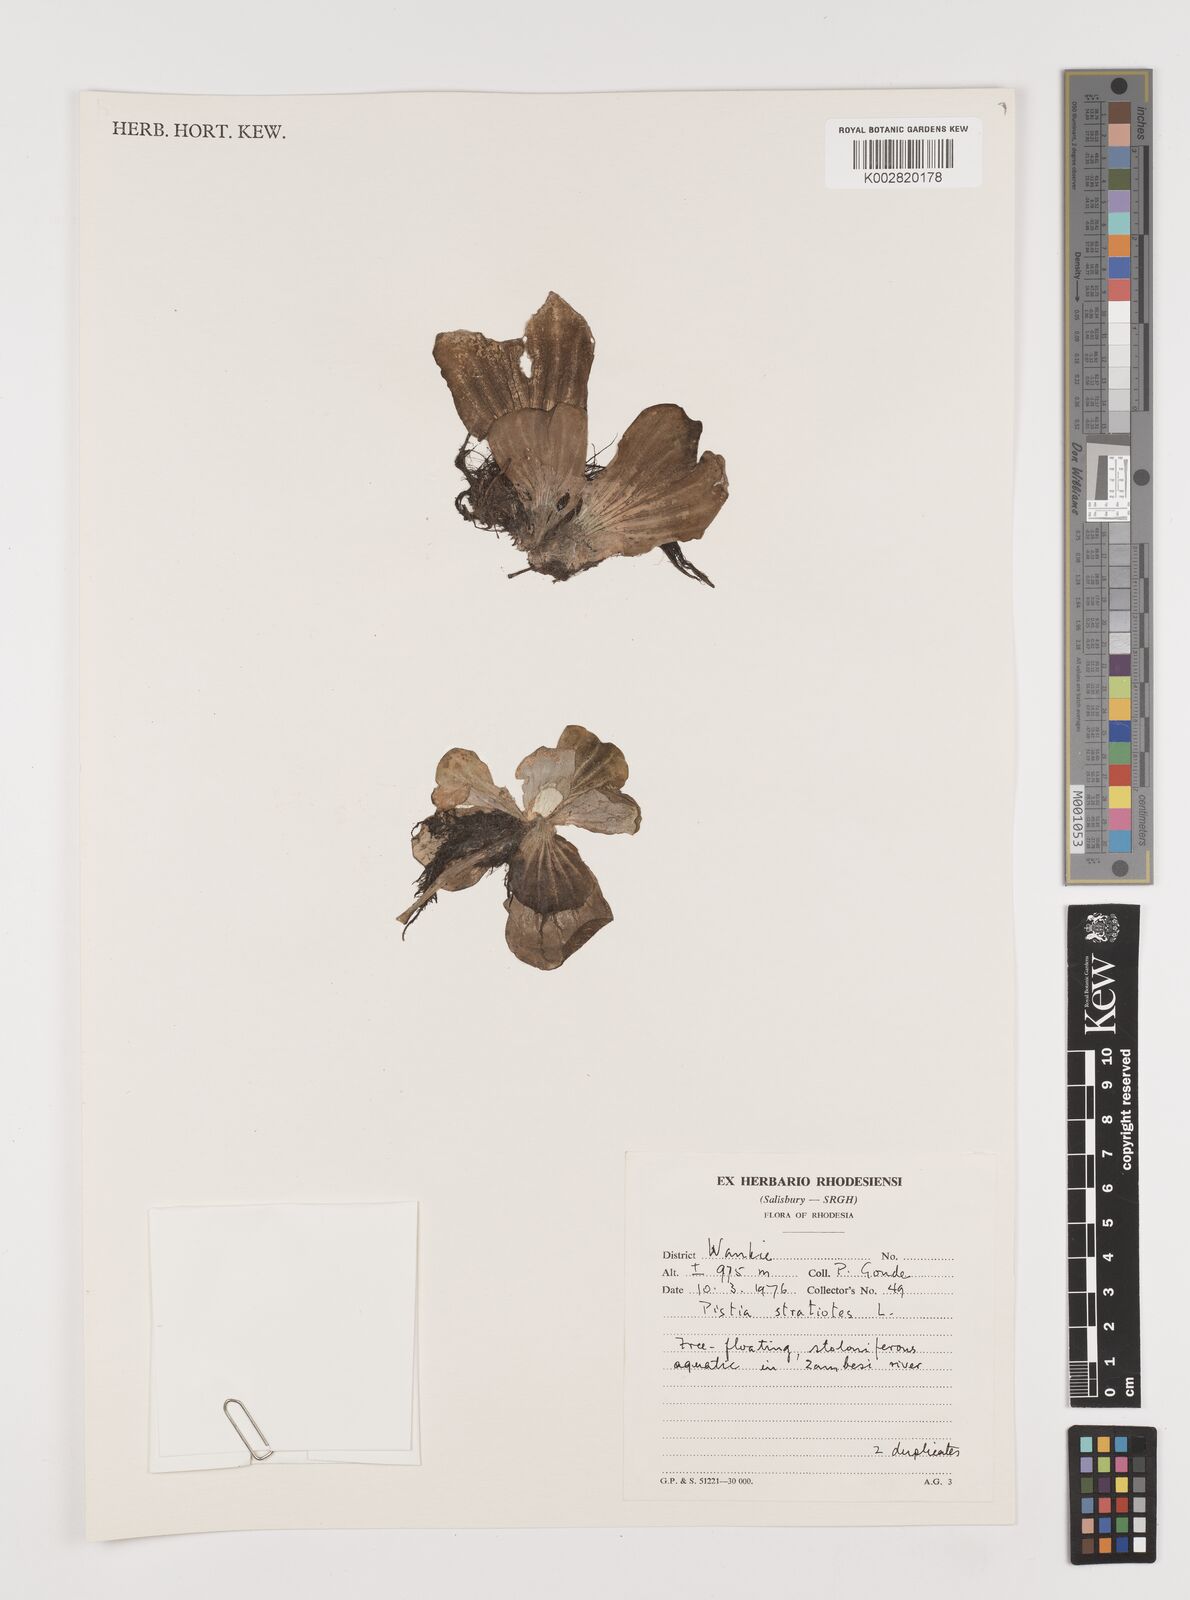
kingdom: Plantae
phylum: Tracheophyta
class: Liliopsida
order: Alismatales
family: Araceae
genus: Pistia
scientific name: Pistia stratiotes
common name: Water lettuce
